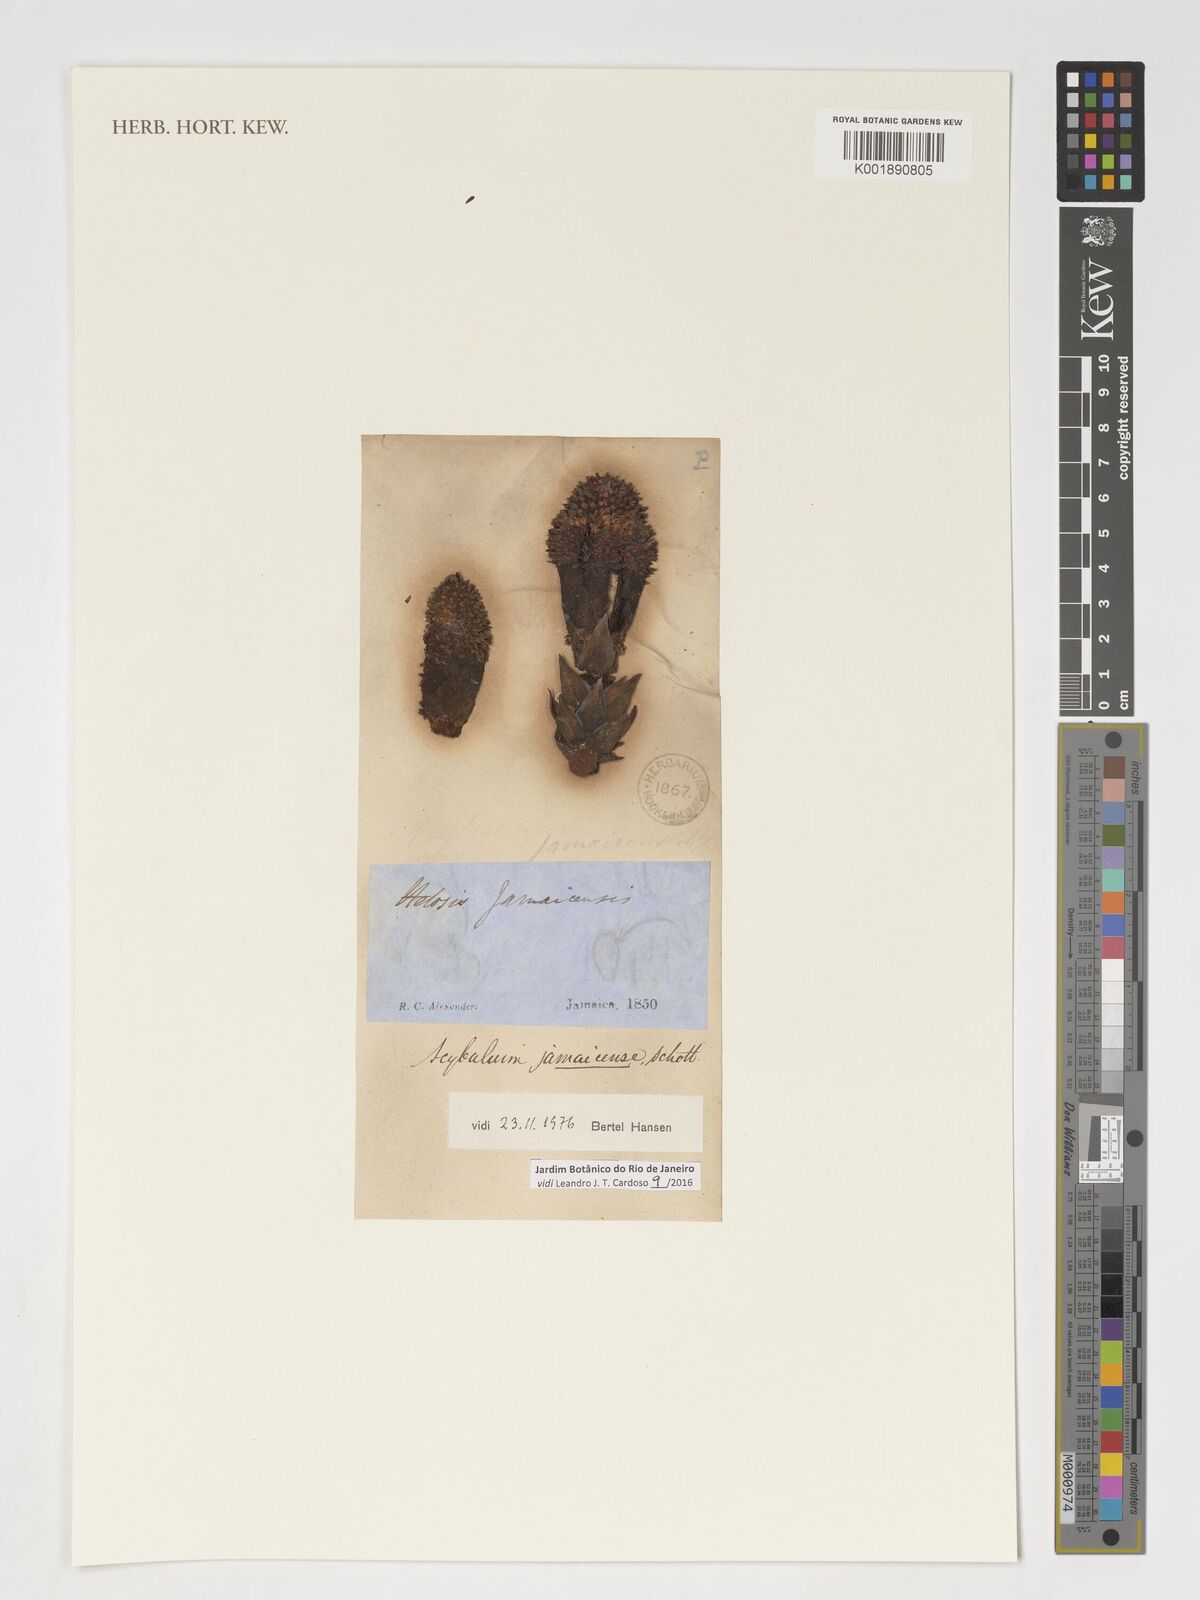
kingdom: Plantae
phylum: Tracheophyta
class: Magnoliopsida
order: Santalales
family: Balanophoraceae
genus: Scybalium
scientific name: Scybalium jamaicense
